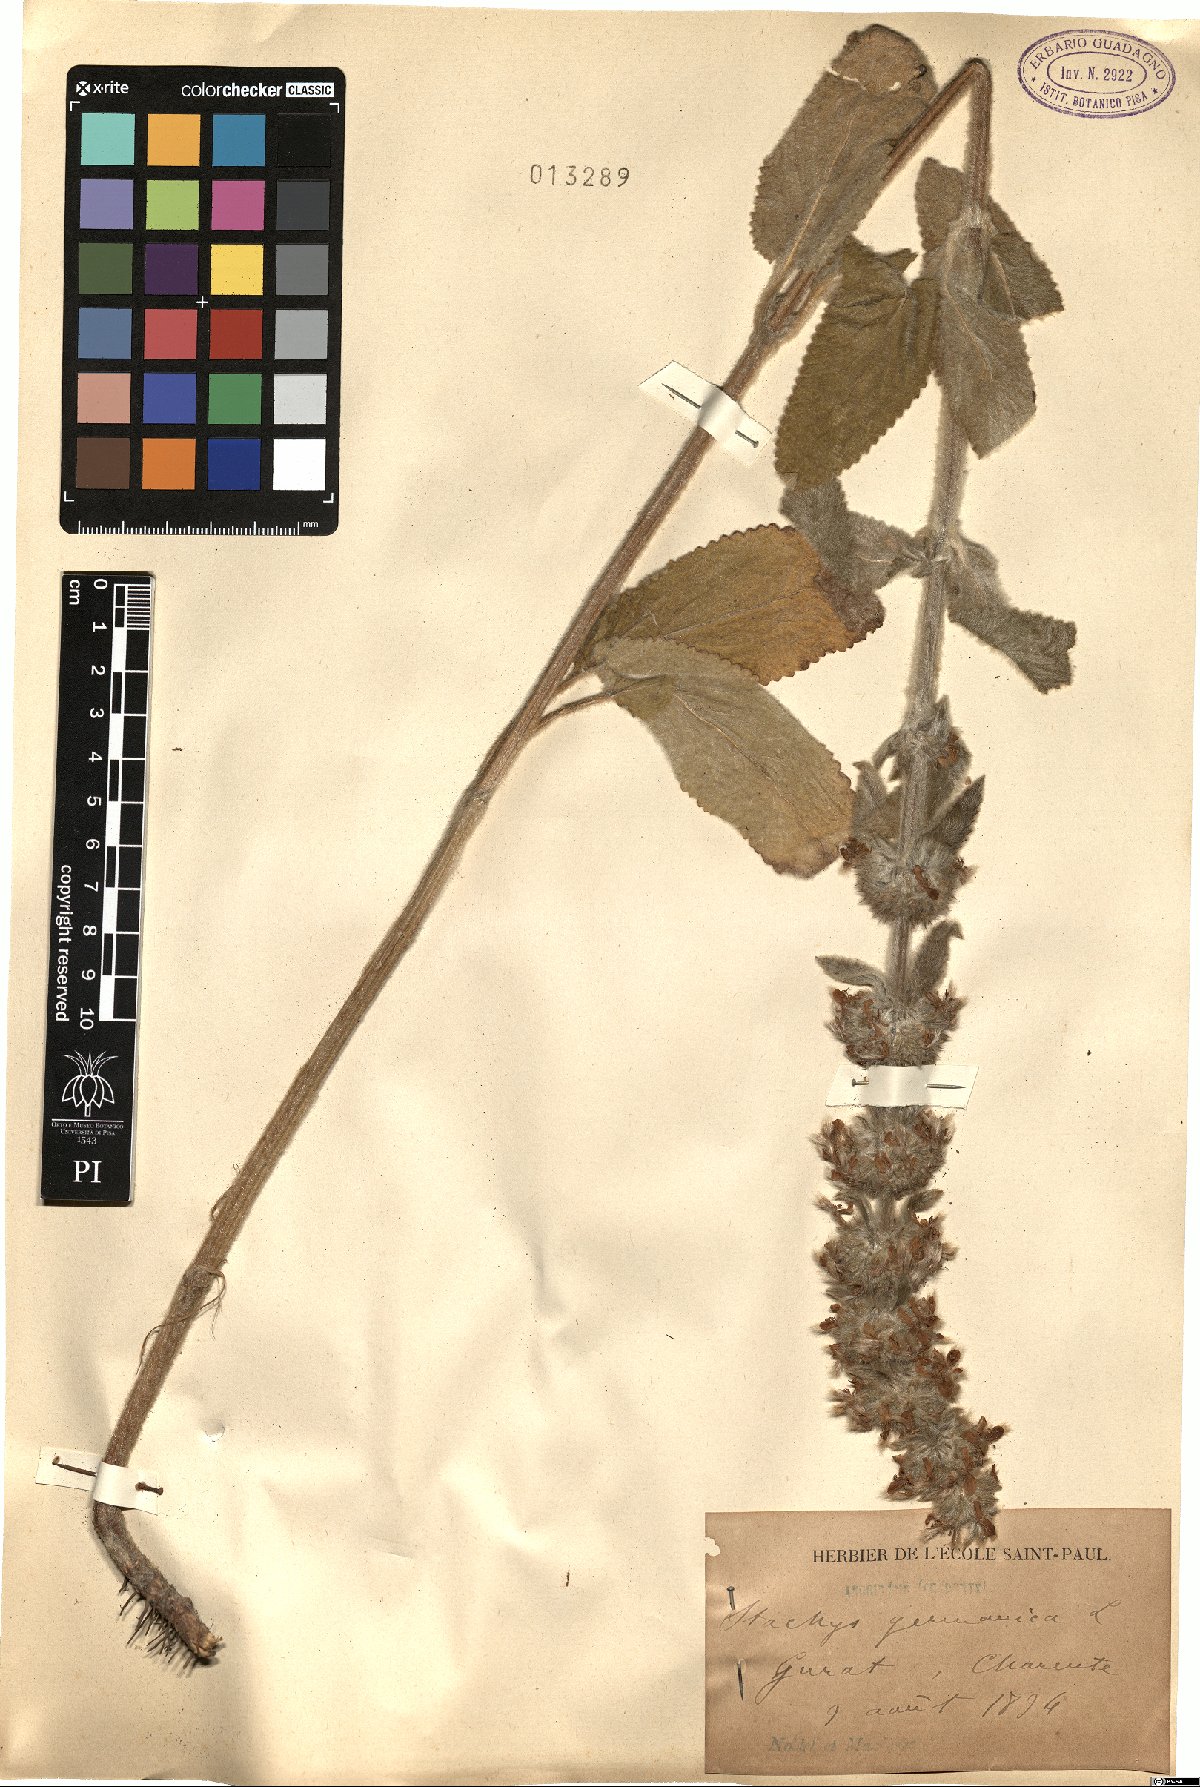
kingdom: Plantae
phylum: Tracheophyta
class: Magnoliopsida
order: Lamiales
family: Lamiaceae
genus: Stachys
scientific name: Stachys germanica
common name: Downy woundwort
